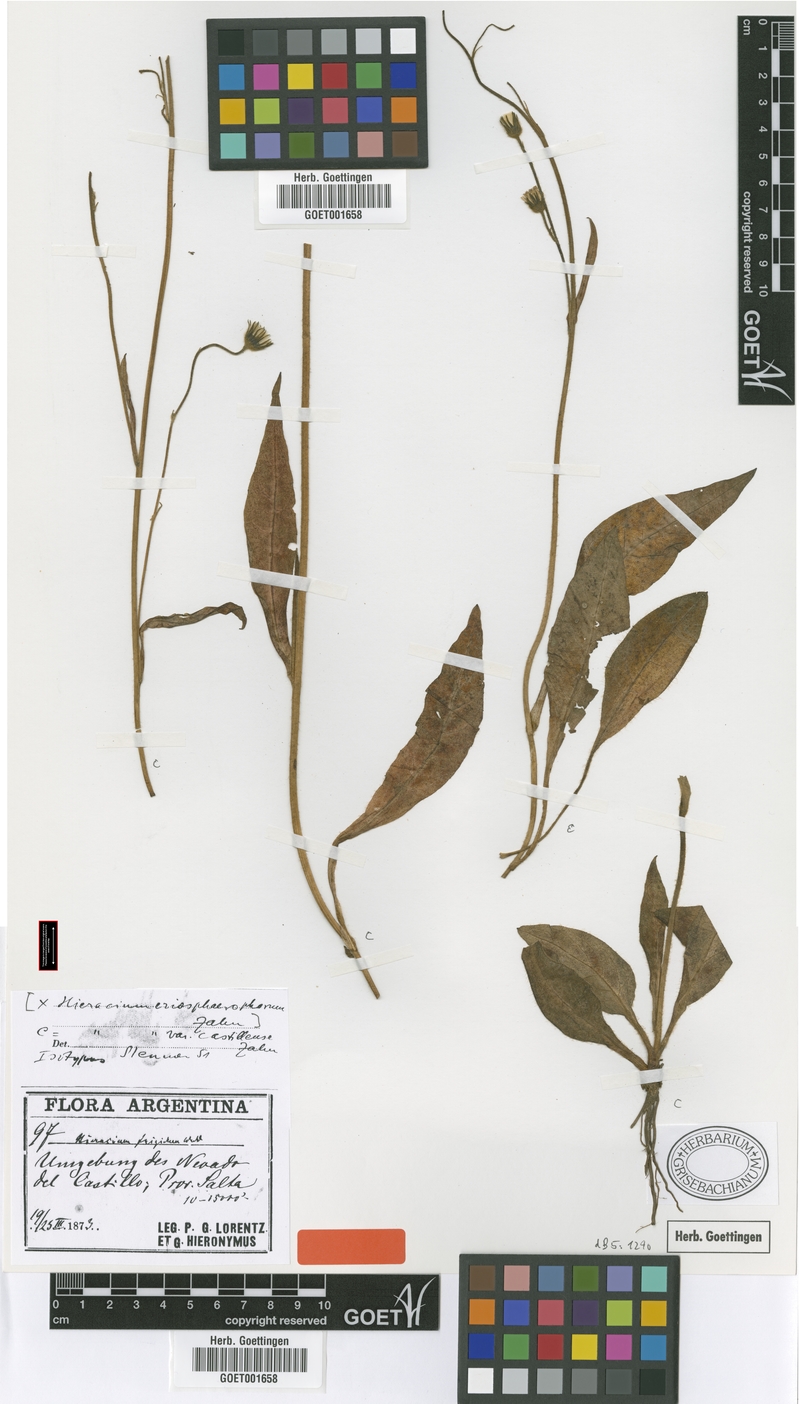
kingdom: Plantae
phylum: Tracheophyta
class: Magnoliopsida
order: Asterales
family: Asteraceae
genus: Hieracium
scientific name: Hieracium mandonii
